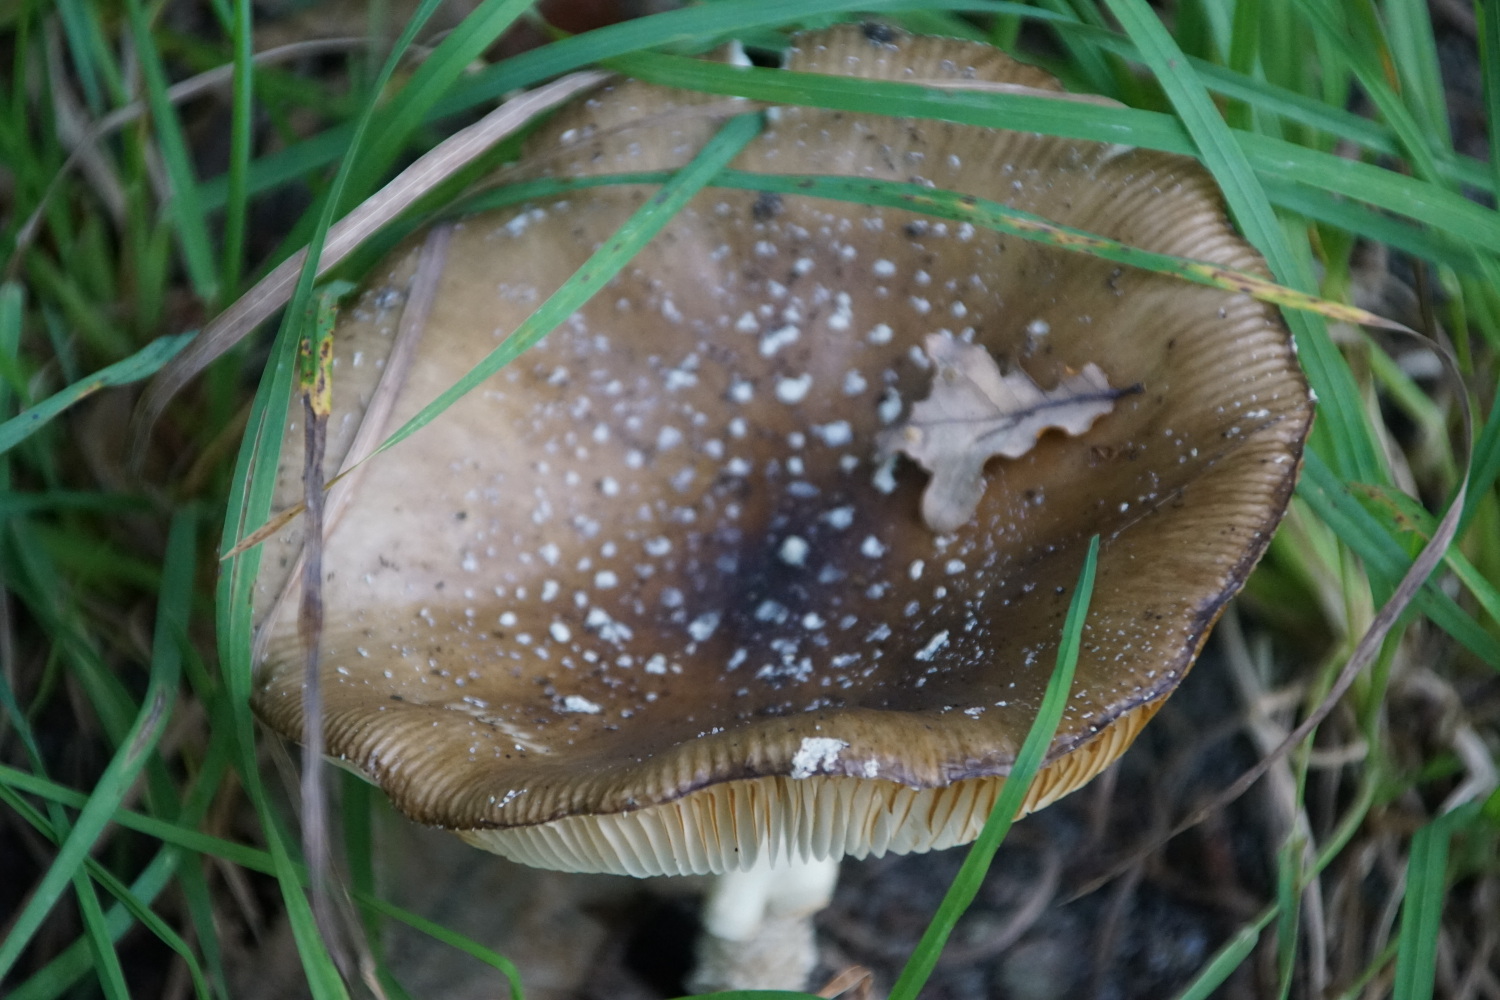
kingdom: Fungi
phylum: Basidiomycota
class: Agaricomycetes
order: Agaricales
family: Amanitaceae
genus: Amanita
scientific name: Amanita pantherina
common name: panter-fluesvamp
